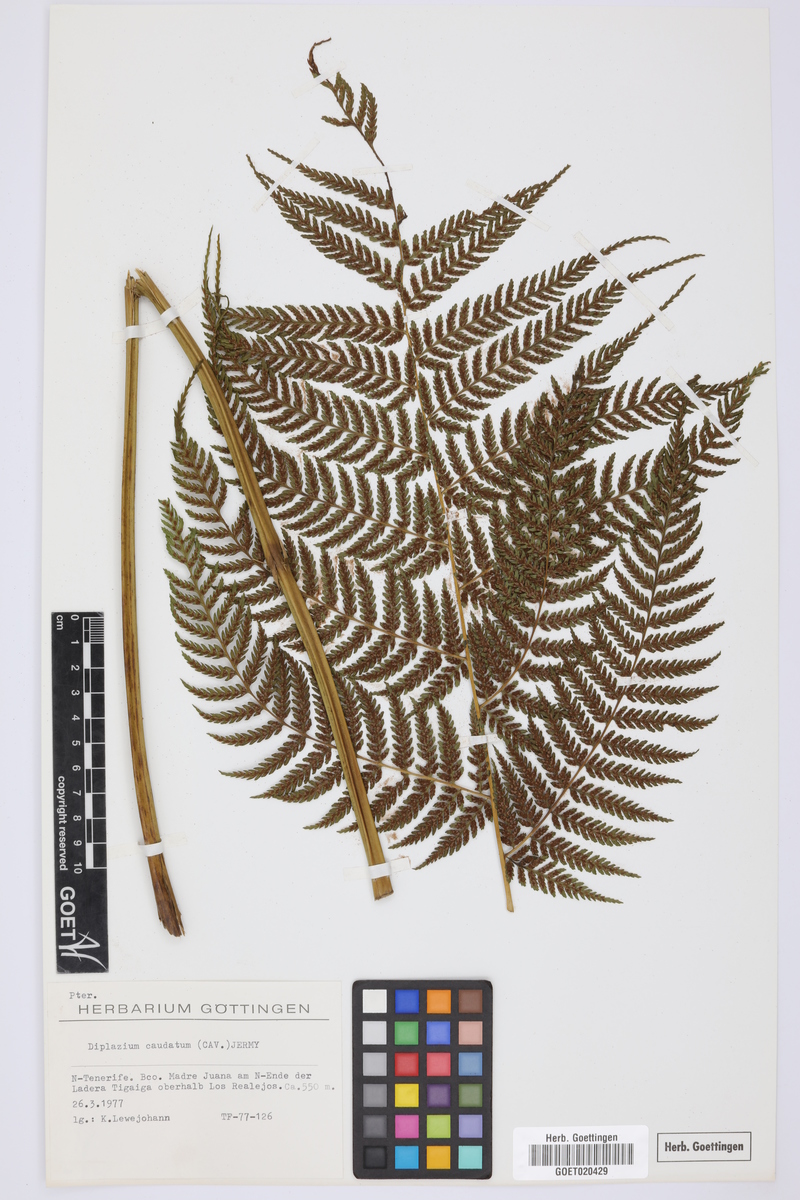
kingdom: Plantae
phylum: Tracheophyta
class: Polypodiopsida
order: Polypodiales
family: Athyriaceae
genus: Diplazium
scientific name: Diplazium caudatum
